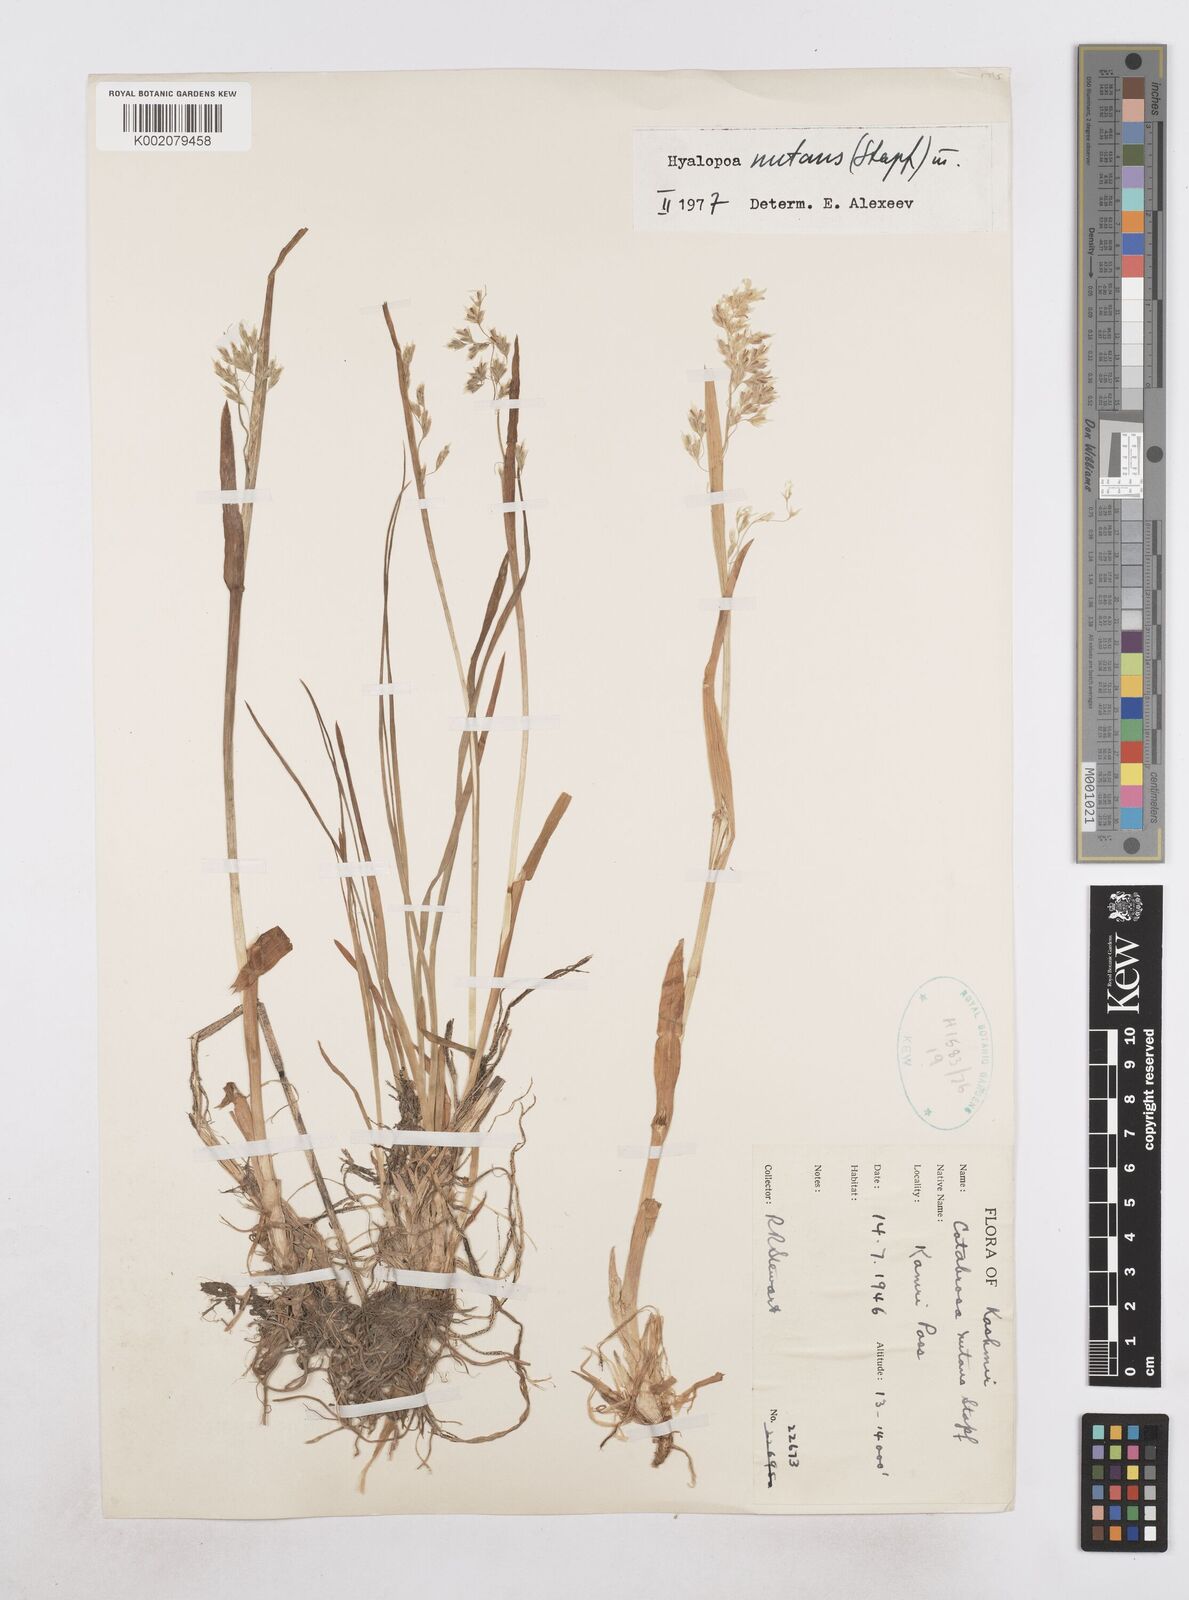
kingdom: Plantae
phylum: Tracheophyta
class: Liliopsida
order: Poales
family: Poaceae
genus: Hyalopoa
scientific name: Hyalopoa nutans
